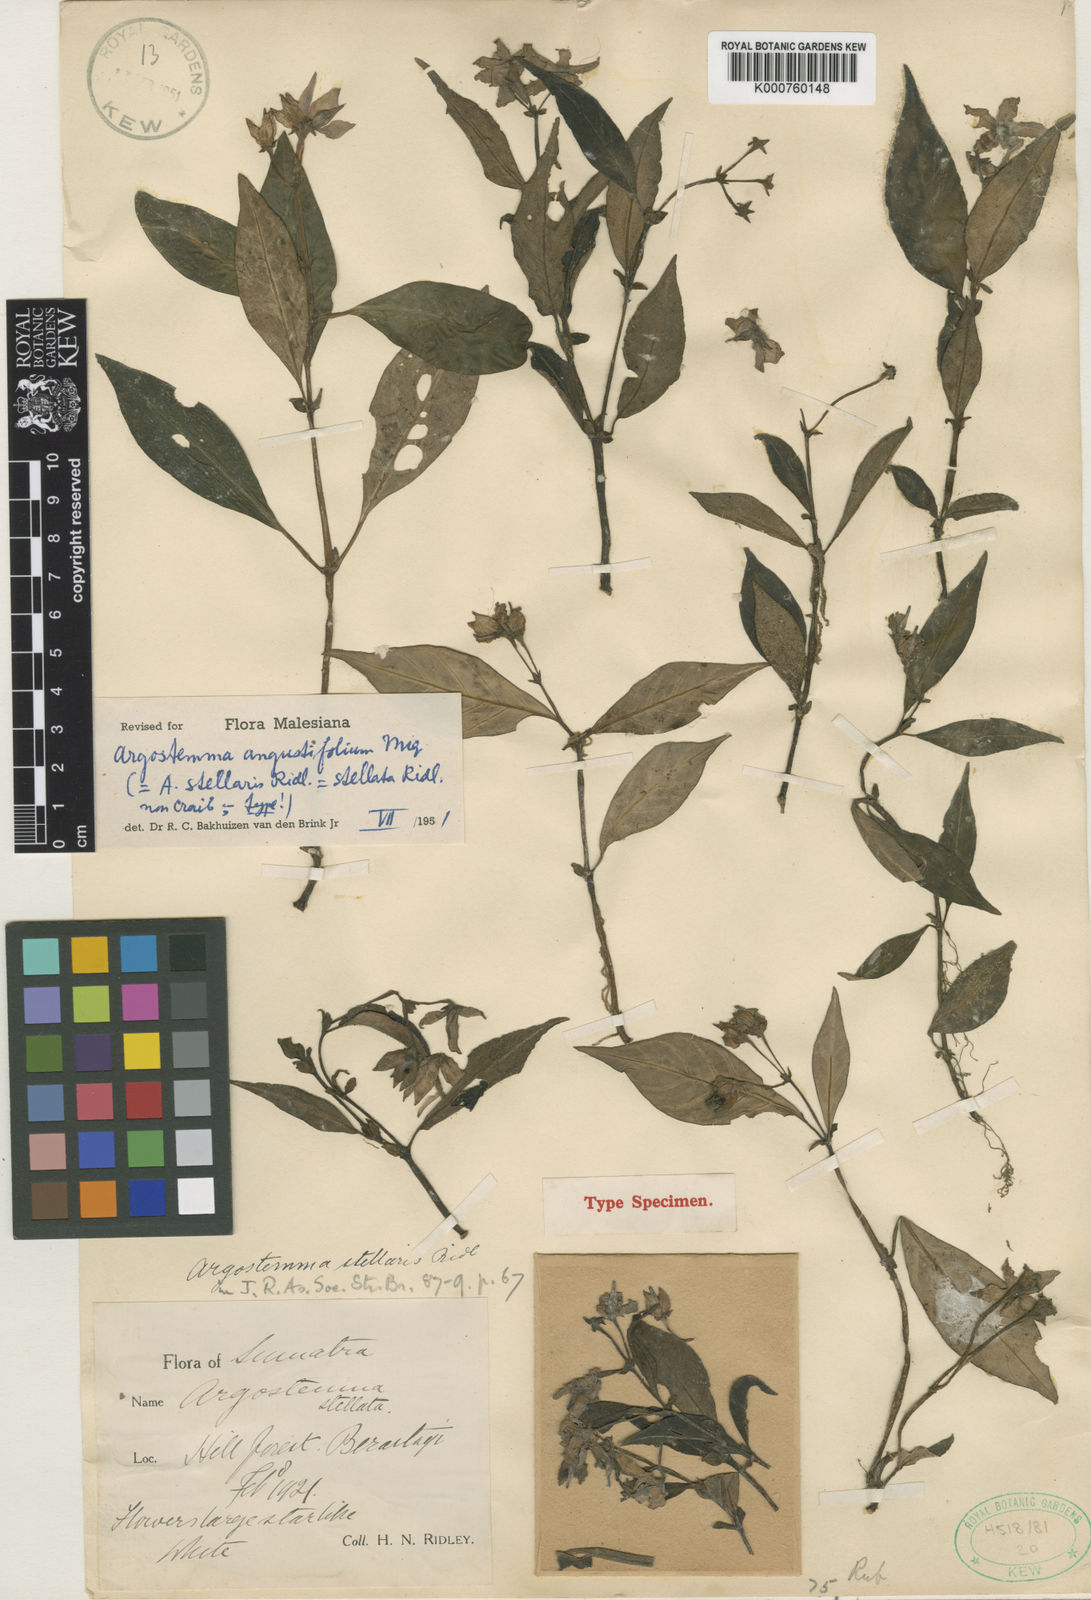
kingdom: Plantae
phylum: Tracheophyta
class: Magnoliopsida
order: Gentianales
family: Rubiaceae
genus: Argostemma
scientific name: Argostemma angustifolium
